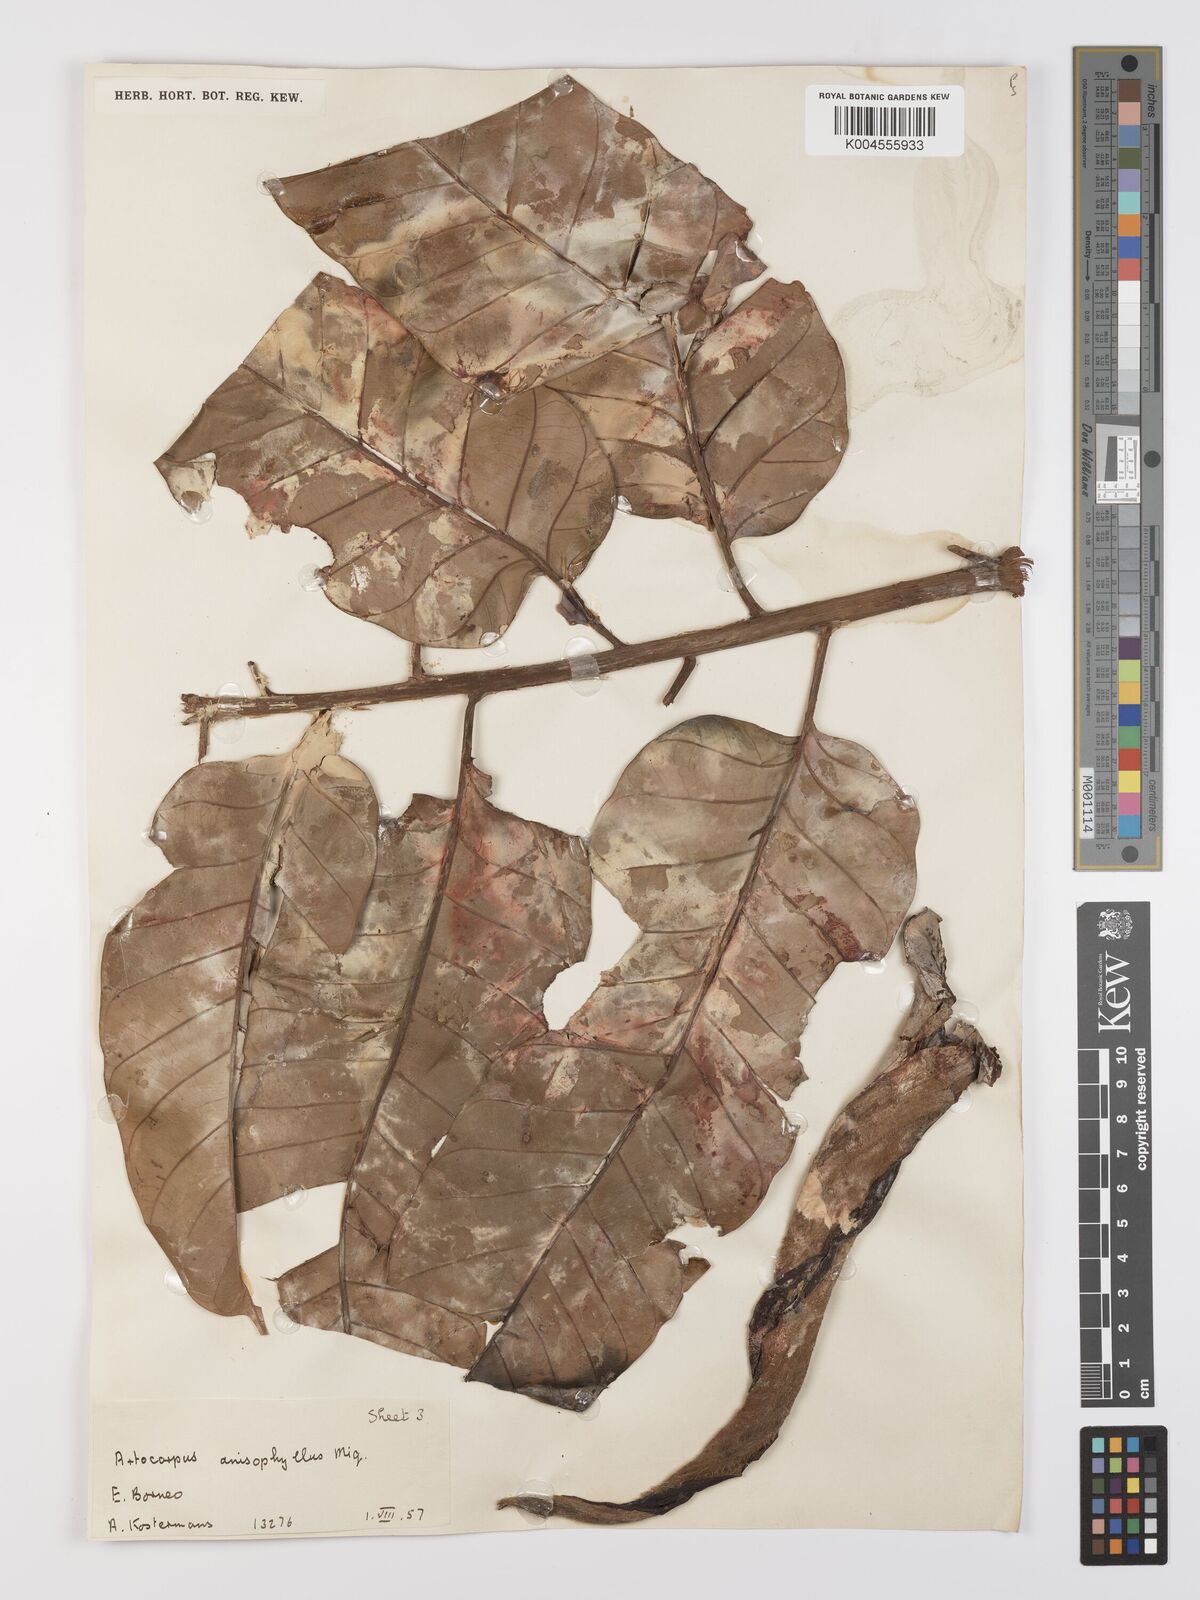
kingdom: Plantae
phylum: Tracheophyta
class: Magnoliopsida
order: Rosales
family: Moraceae
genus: Artocarpus
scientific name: Artocarpus anisophyllus
